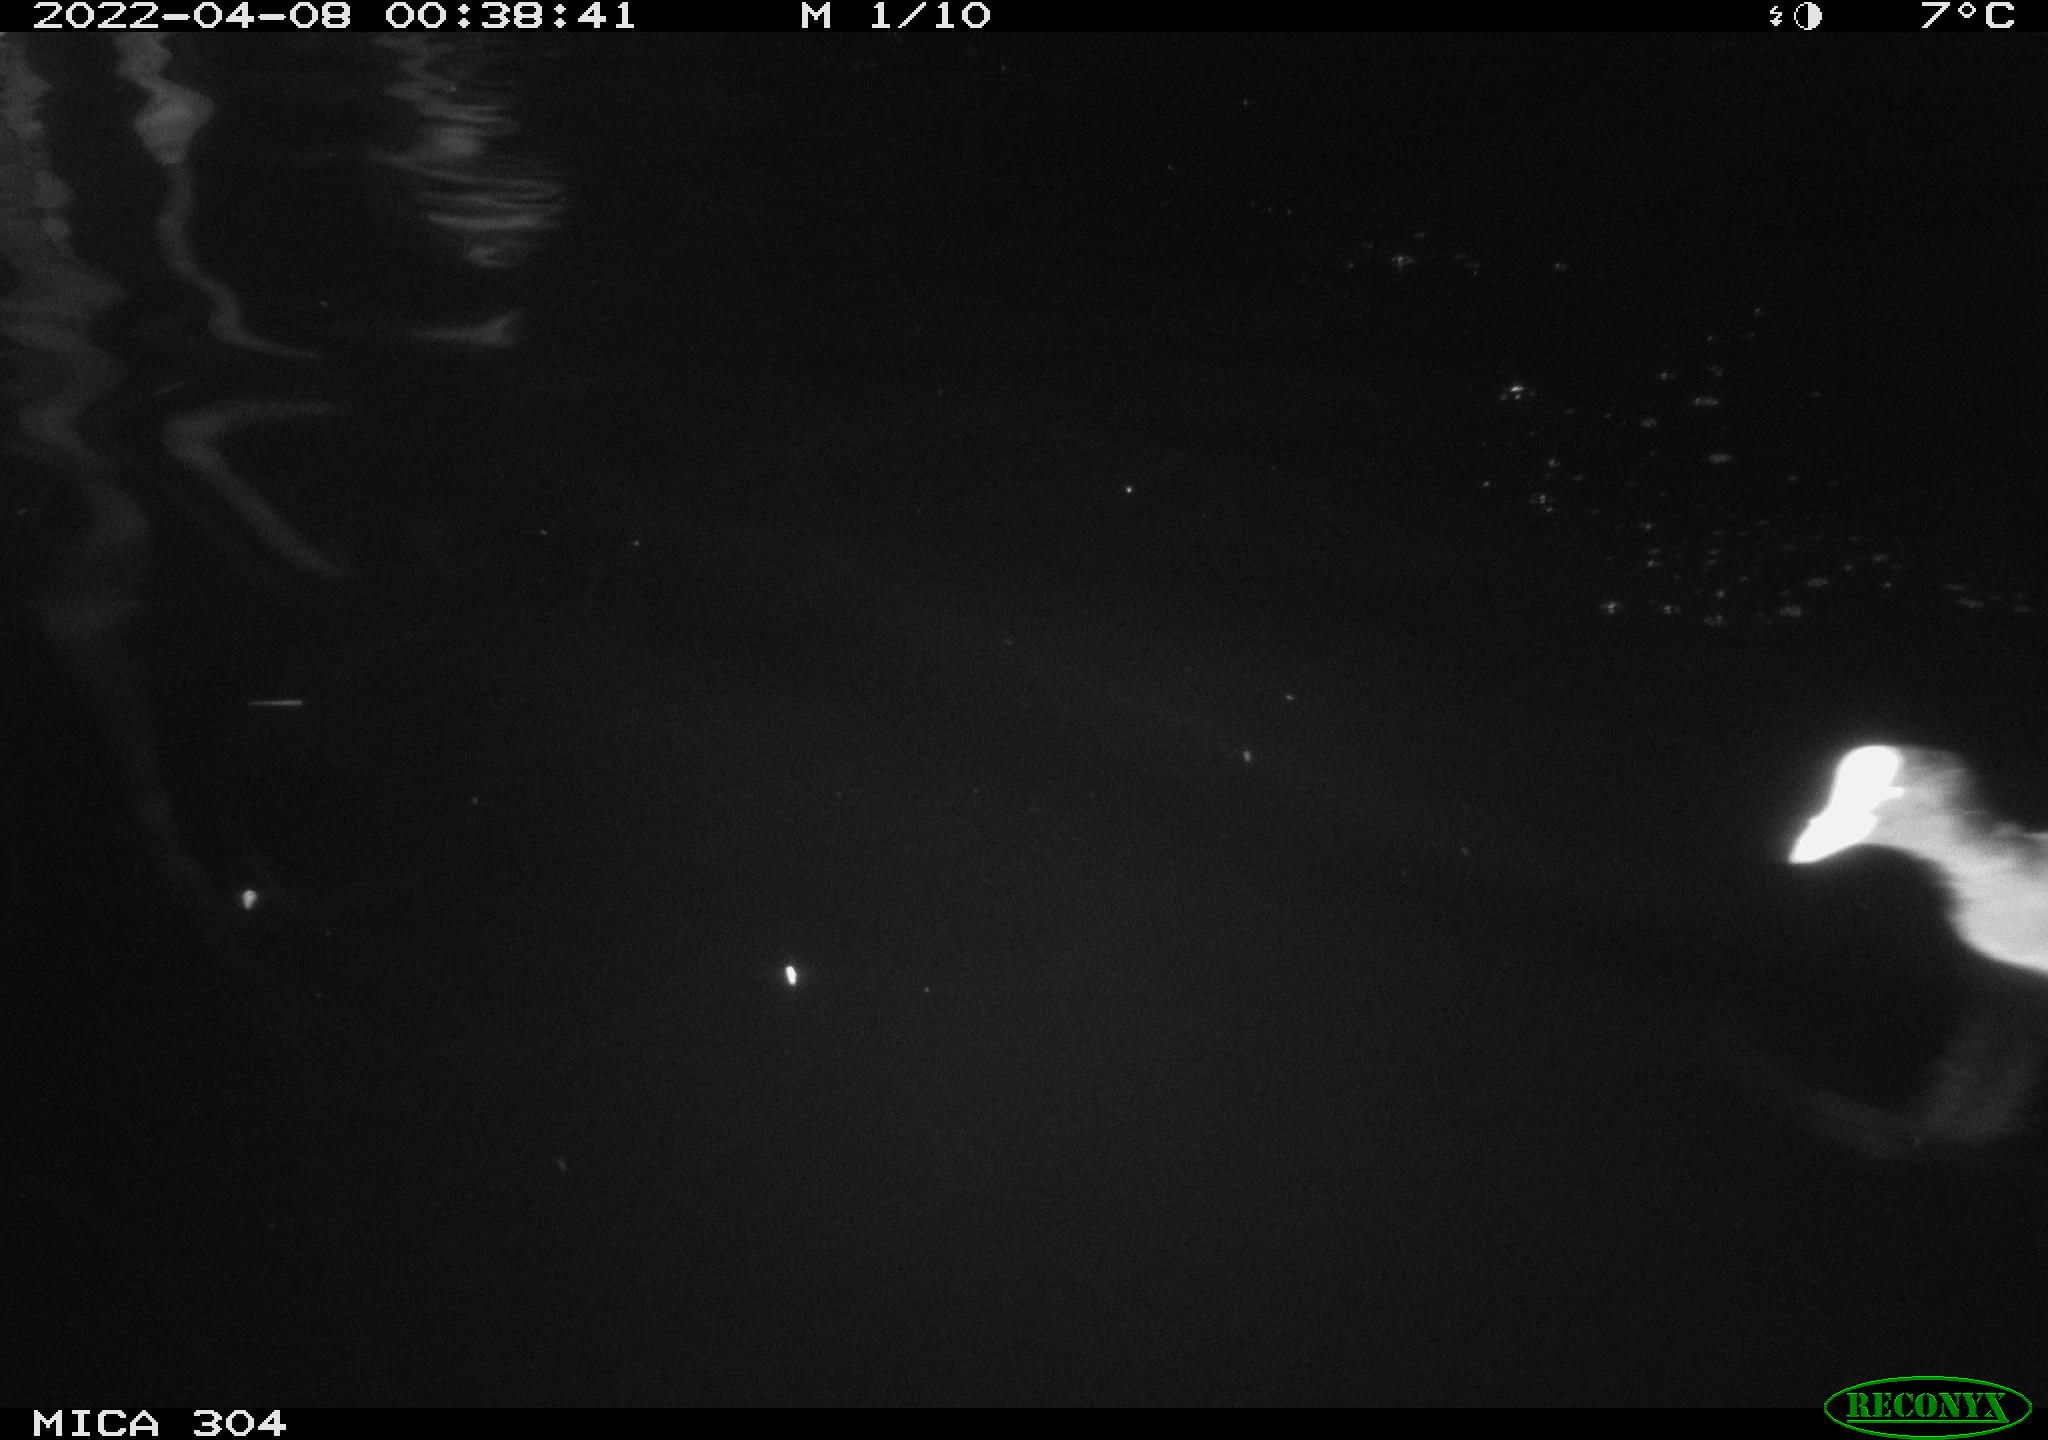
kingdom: Animalia
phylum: Chordata
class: Aves
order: Gruiformes
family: Rallidae
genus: Fulica
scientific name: Fulica atra
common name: Eurasian coot
